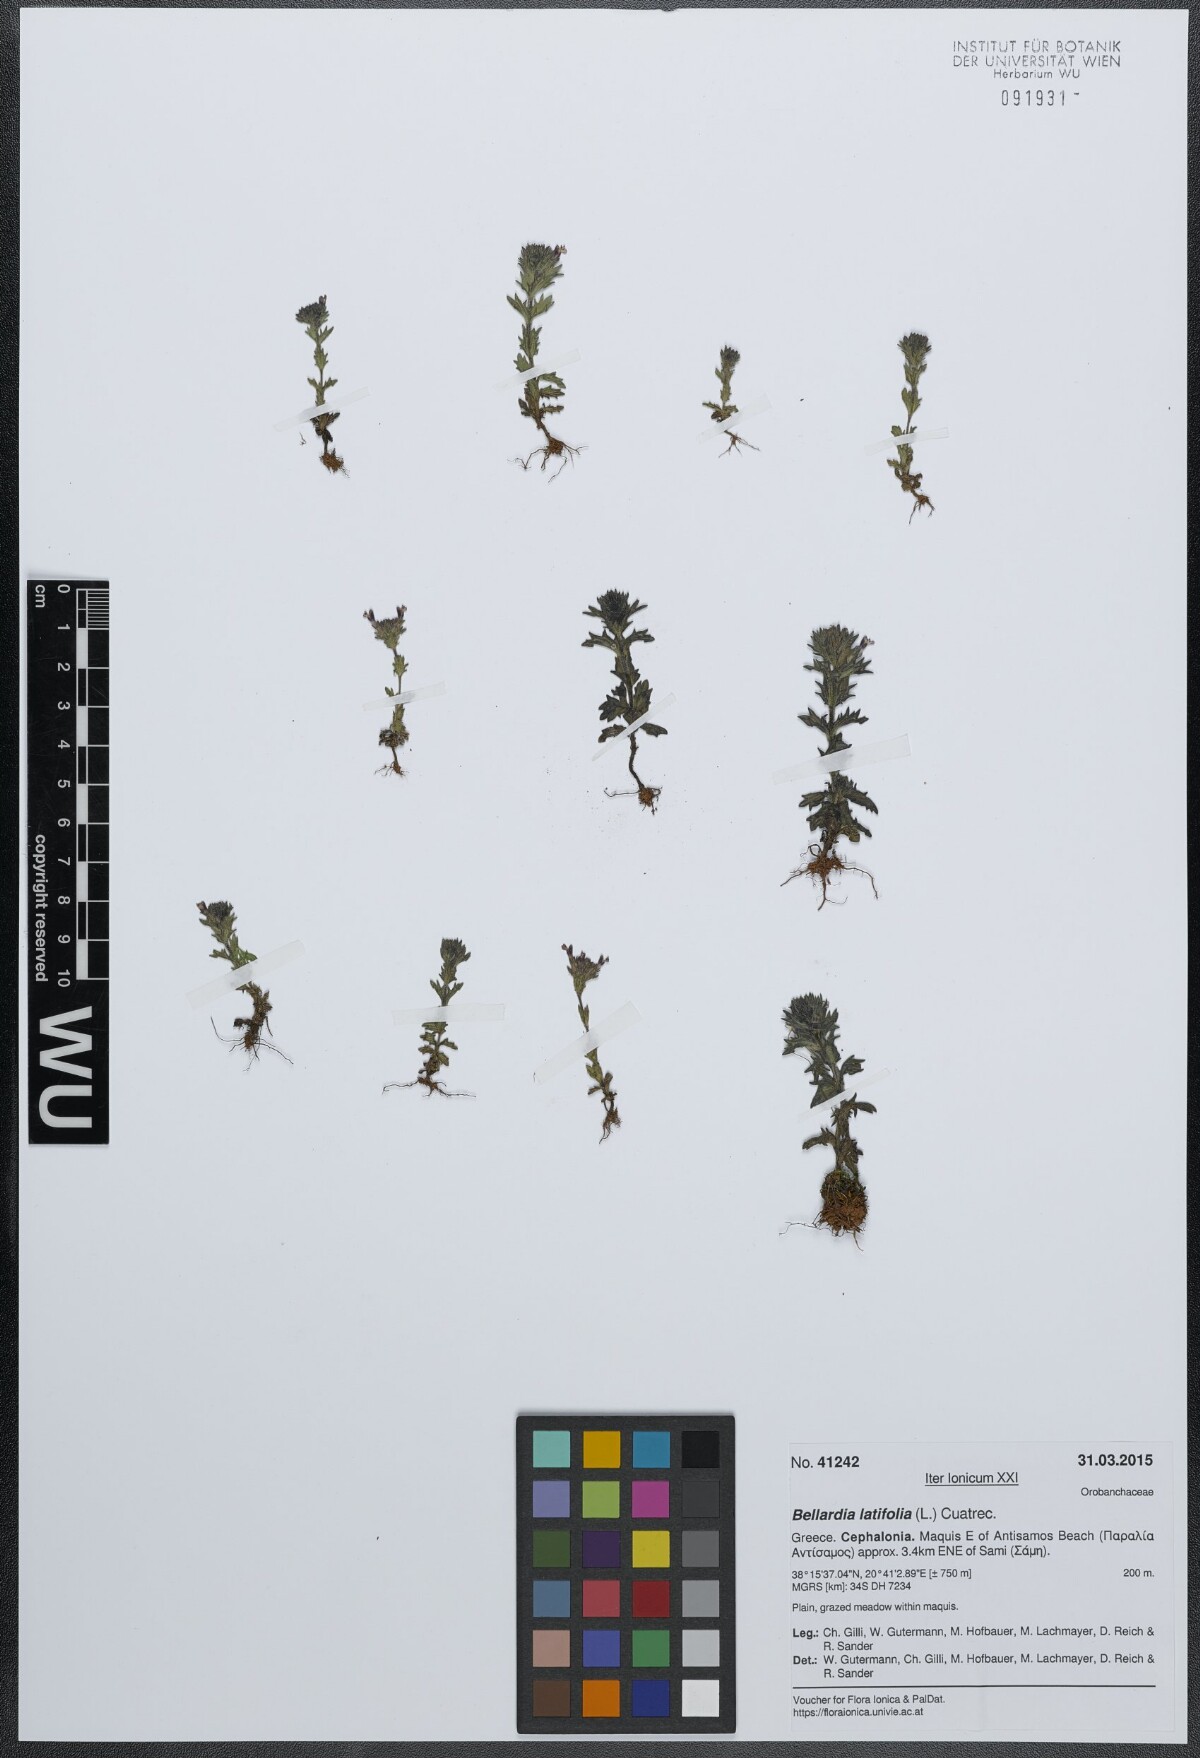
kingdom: Plantae
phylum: Tracheophyta
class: Magnoliopsida
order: Lamiales
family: Orobanchaceae
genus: Parentucellia
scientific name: Parentucellia latifolia
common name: Broadleaf glandweed
